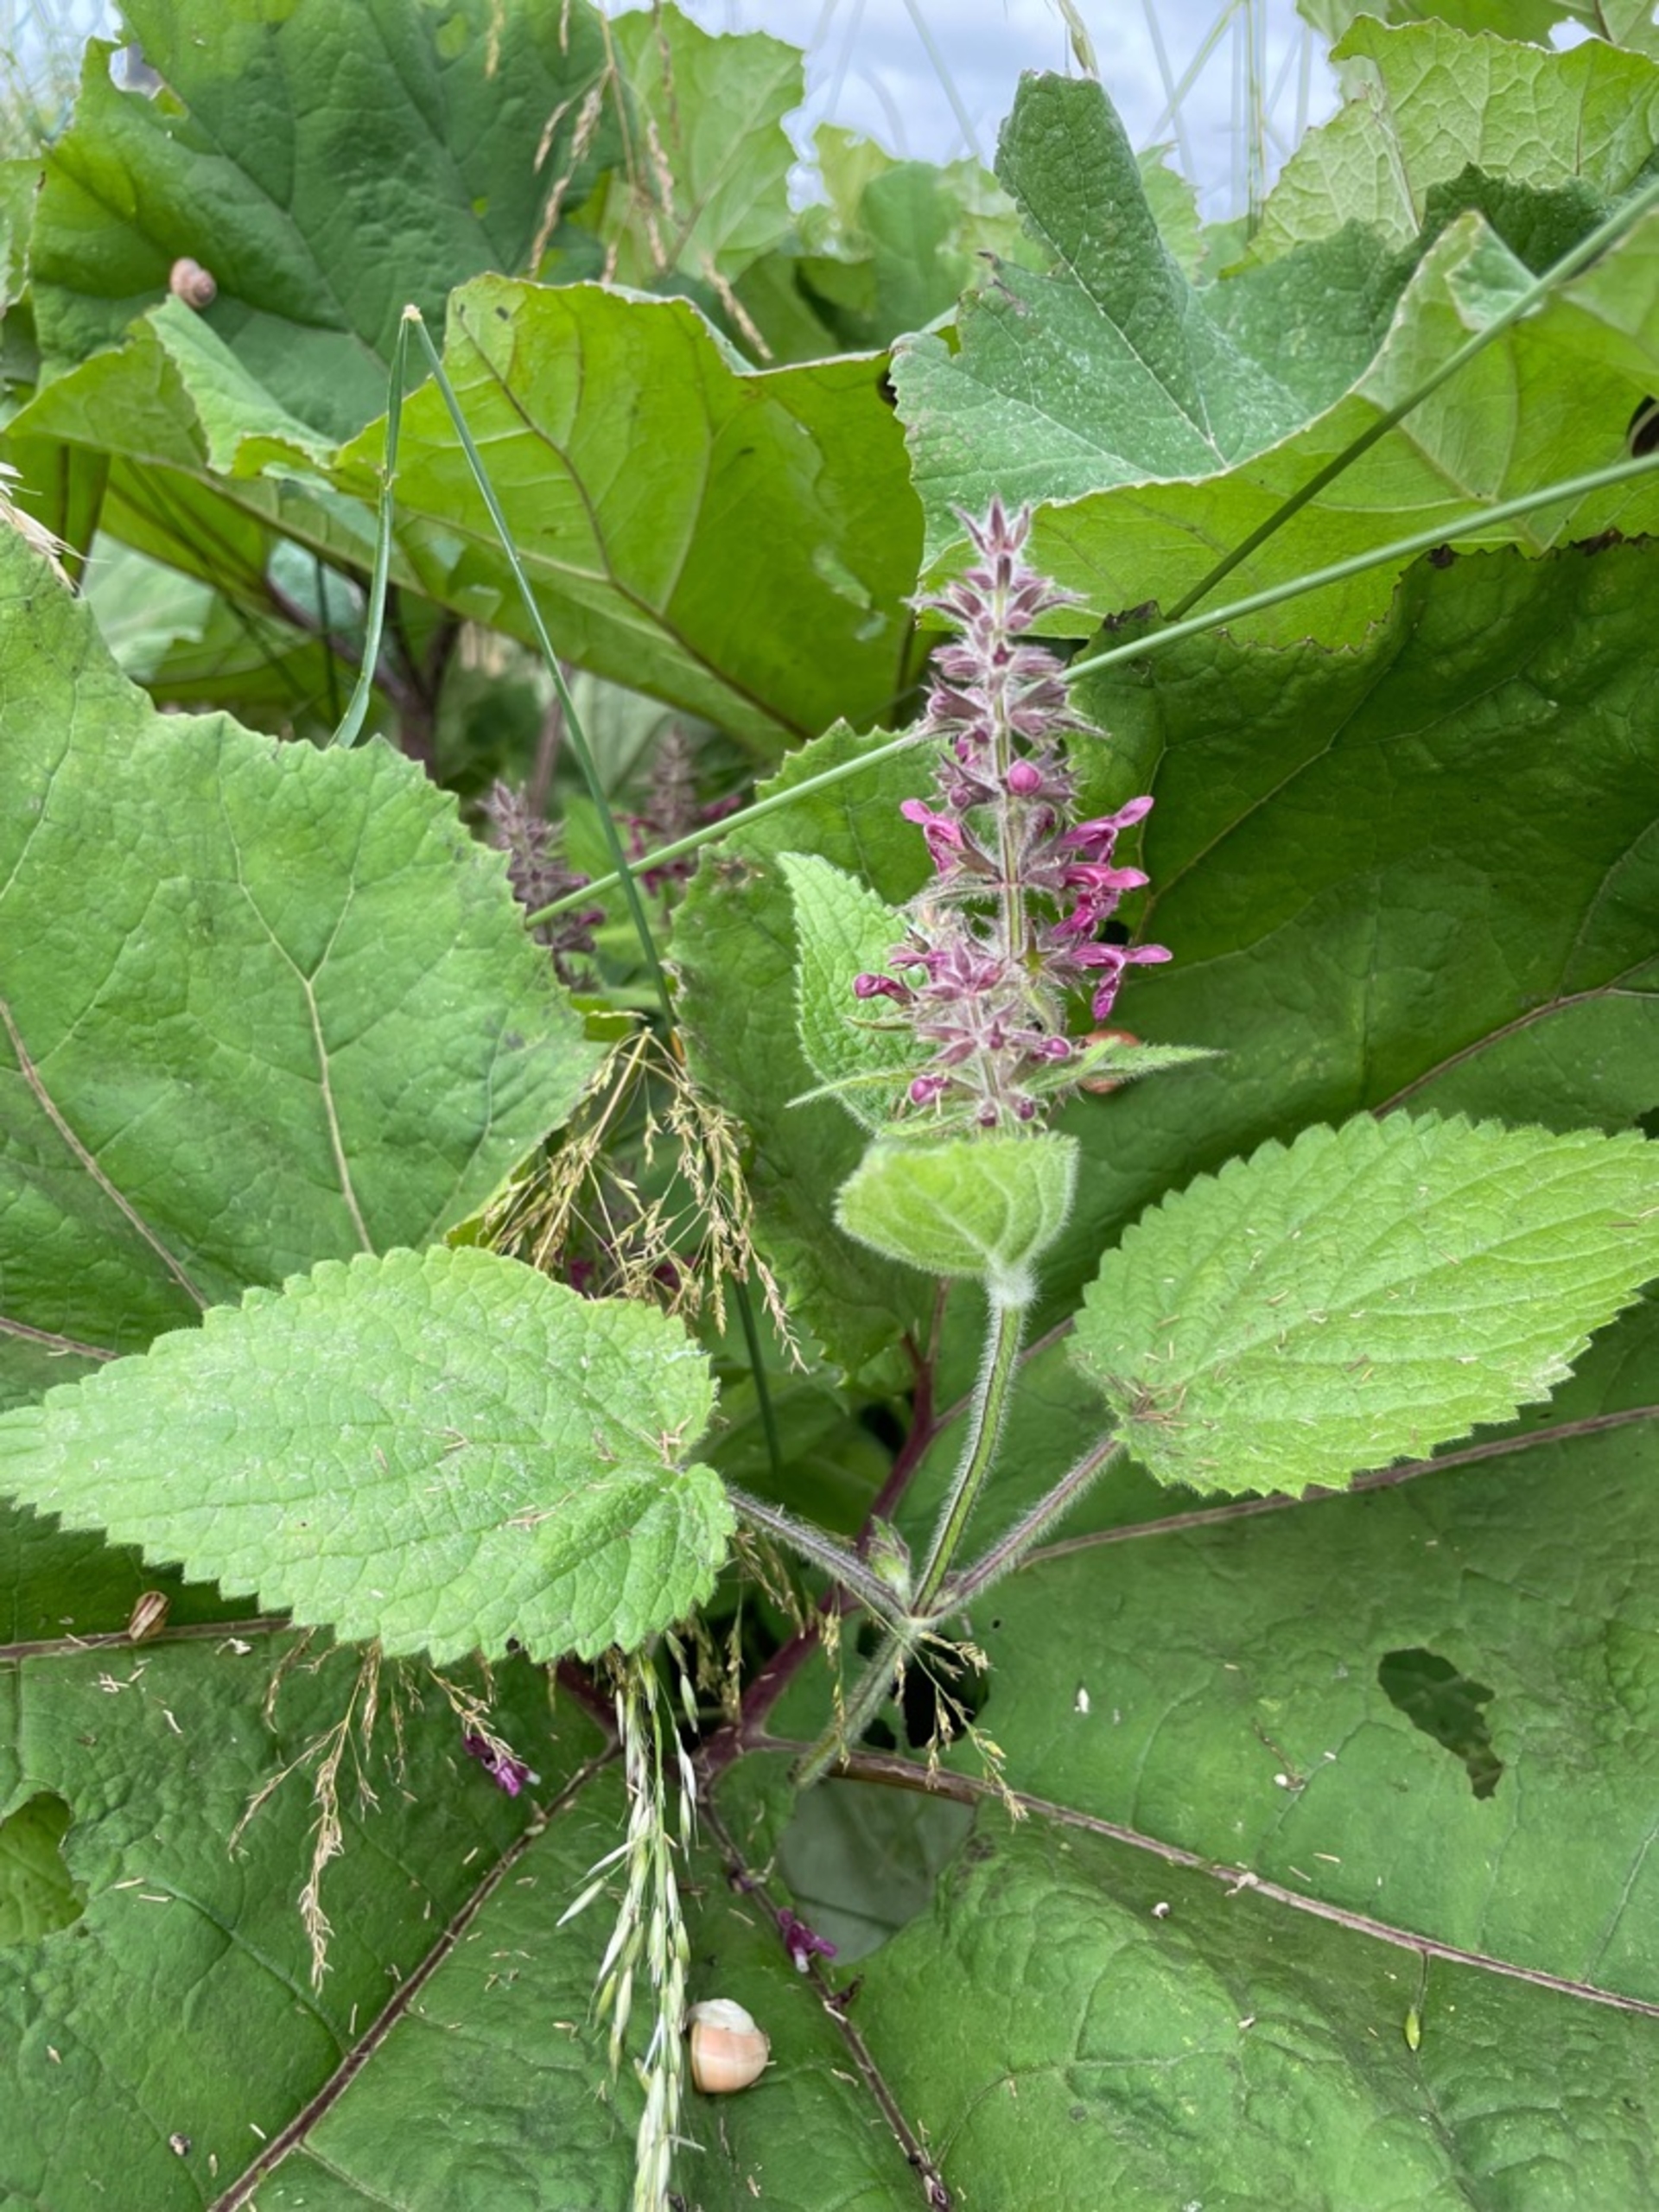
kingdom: Plantae
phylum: Tracheophyta
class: Magnoliopsida
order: Lamiales
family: Lamiaceae
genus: Stachys
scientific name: Stachys sylvatica
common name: Skov-galtetand
